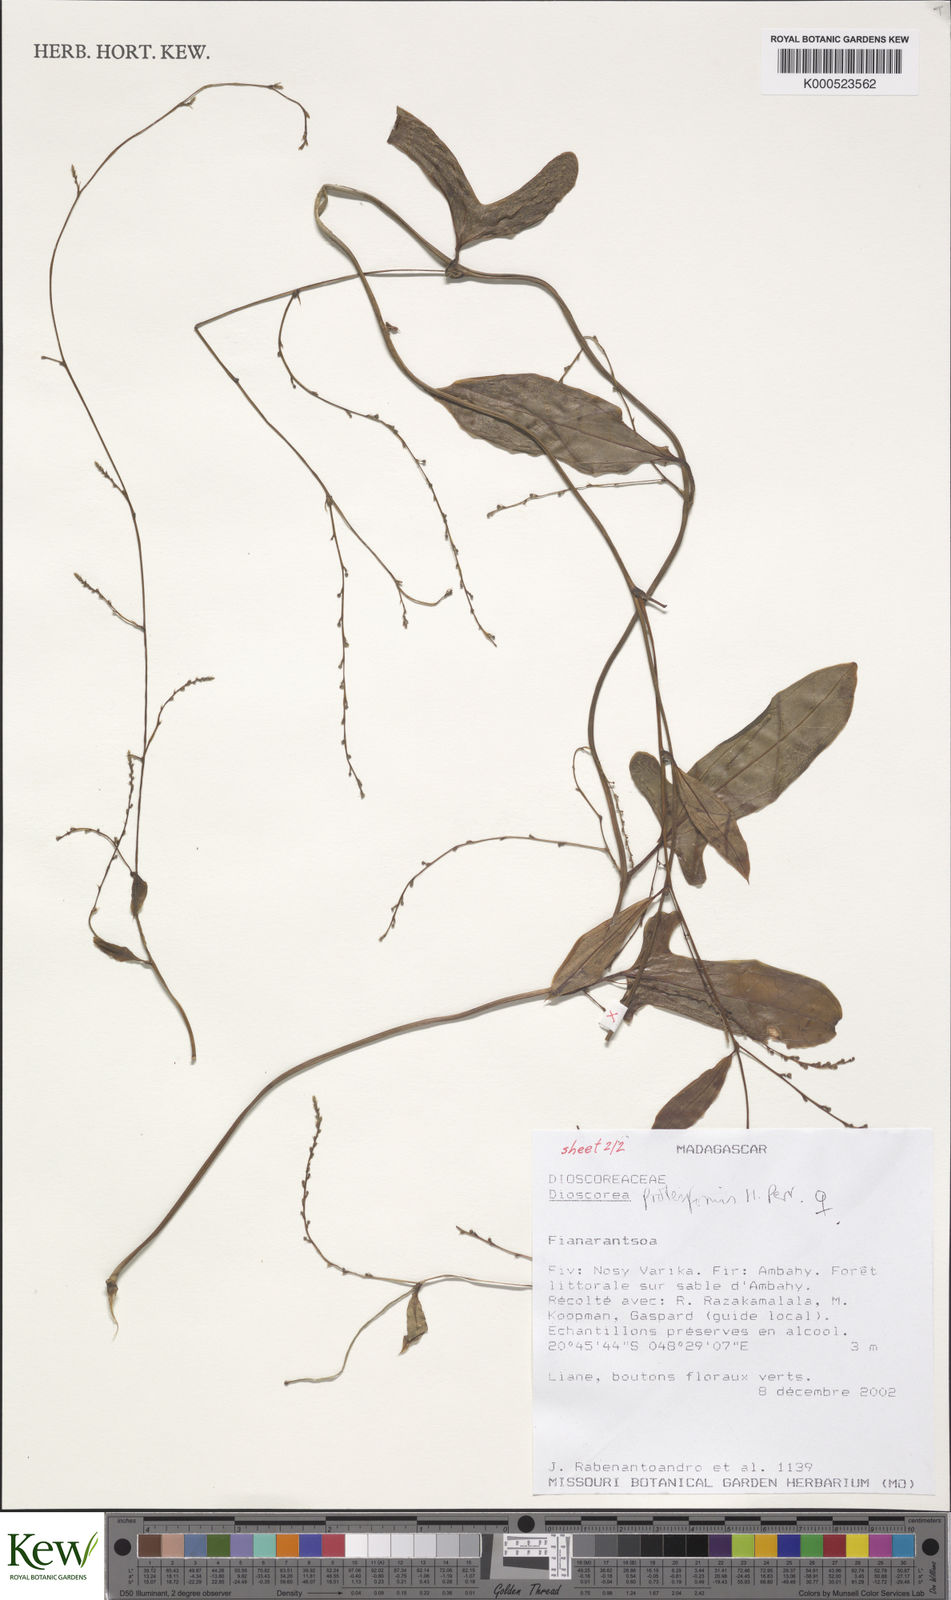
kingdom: Plantae
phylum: Tracheophyta
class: Liliopsida
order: Dioscoreales
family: Dioscoreaceae
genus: Dioscorea
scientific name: Dioscorea proteiformis
